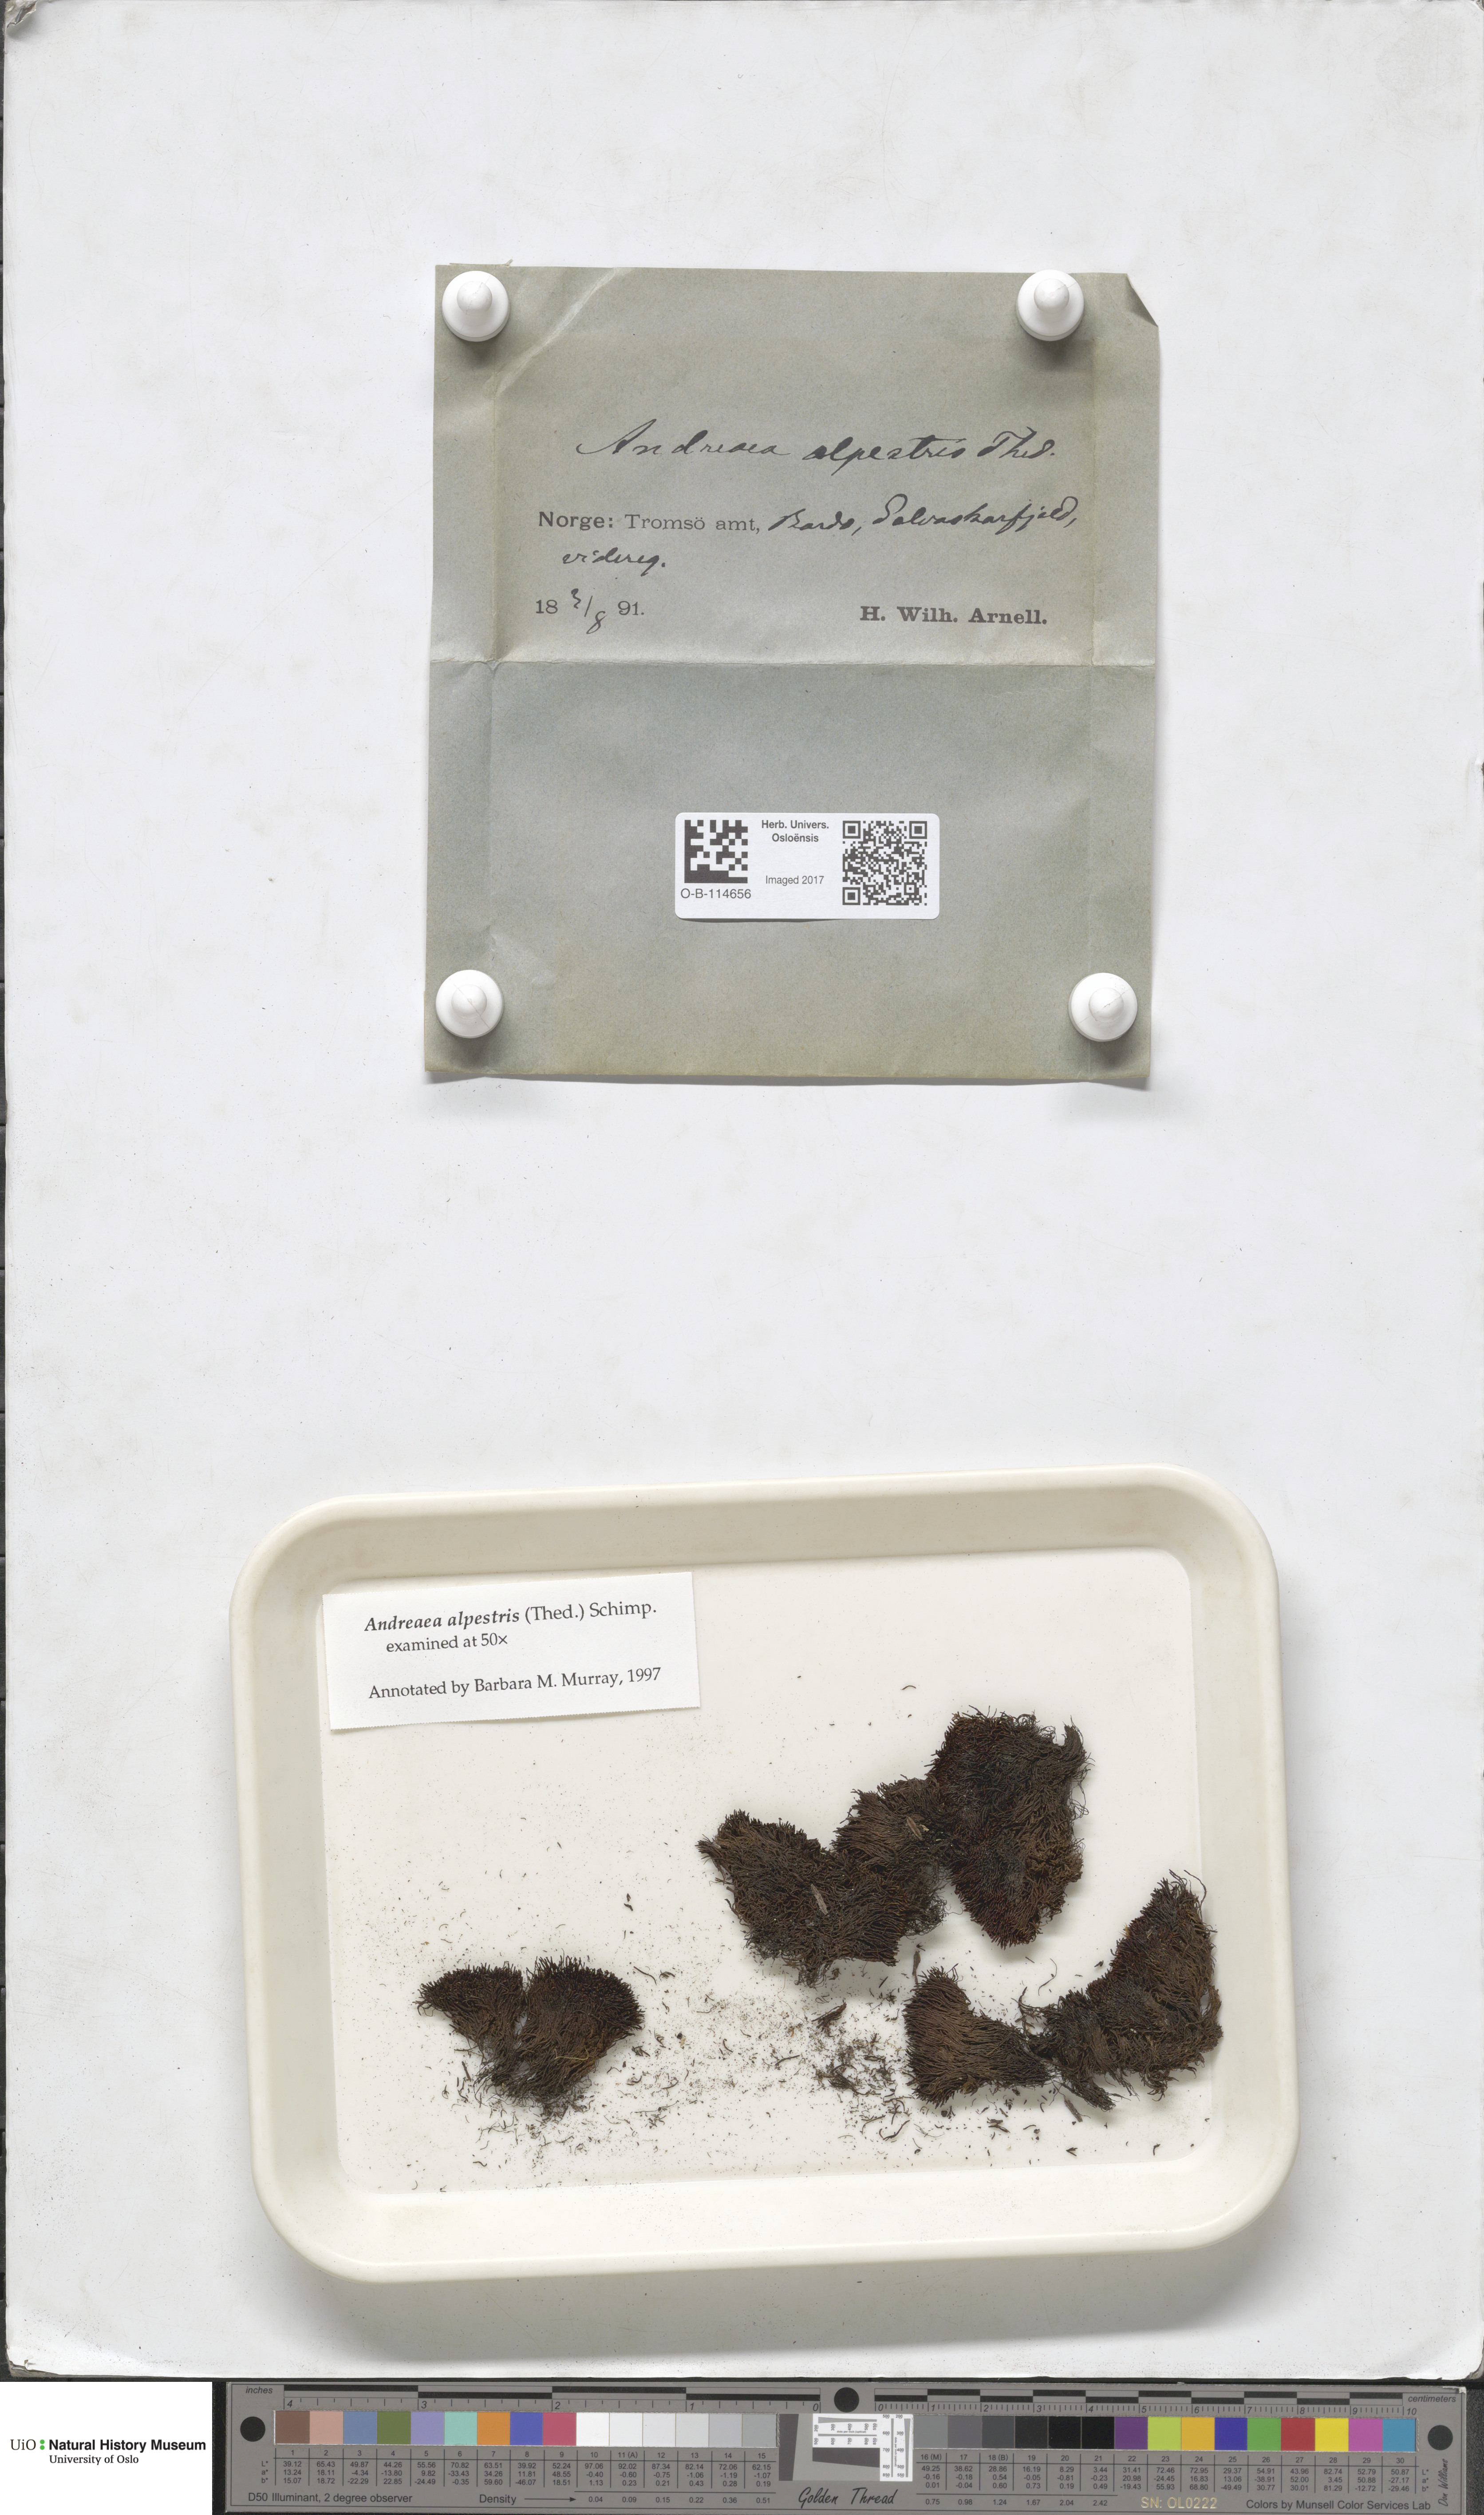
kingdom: Plantae
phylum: Bryophyta
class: Andreaeopsida
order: Andreaeales
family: Andreaeaceae
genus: Andreaea
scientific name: Andreaea alpestris
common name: Slender rock-moss
